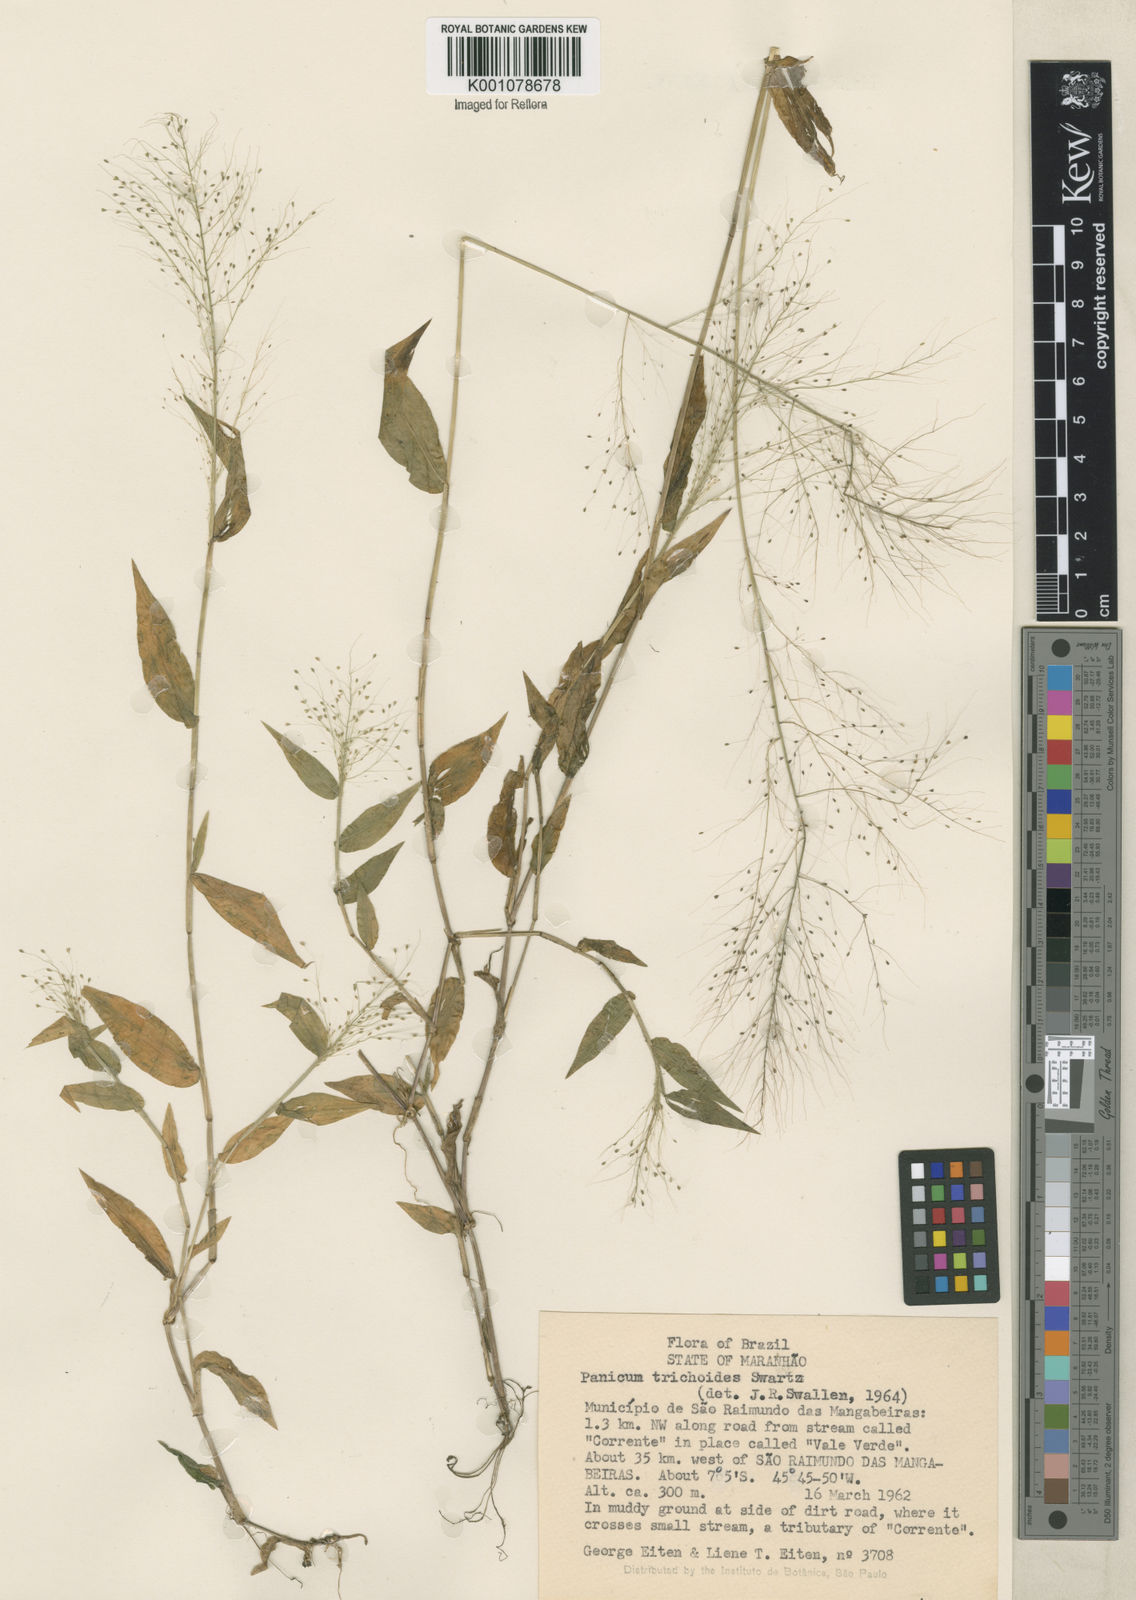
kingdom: Plantae
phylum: Tracheophyta
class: Liliopsida
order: Poales
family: Poaceae
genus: Panicum
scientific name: Panicum trichoides
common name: Tickle grass
